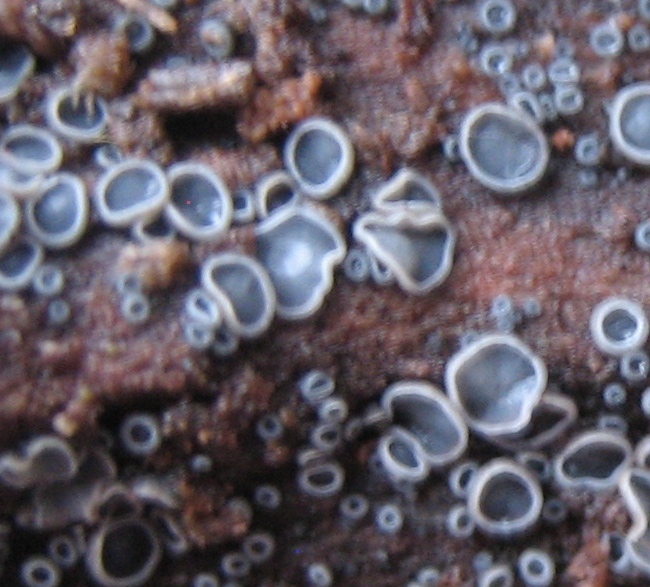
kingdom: Fungi
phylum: Ascomycota
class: Leotiomycetes
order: Helotiales
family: Mollisiaceae
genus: Mollisia
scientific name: Mollisia
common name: gråskive
